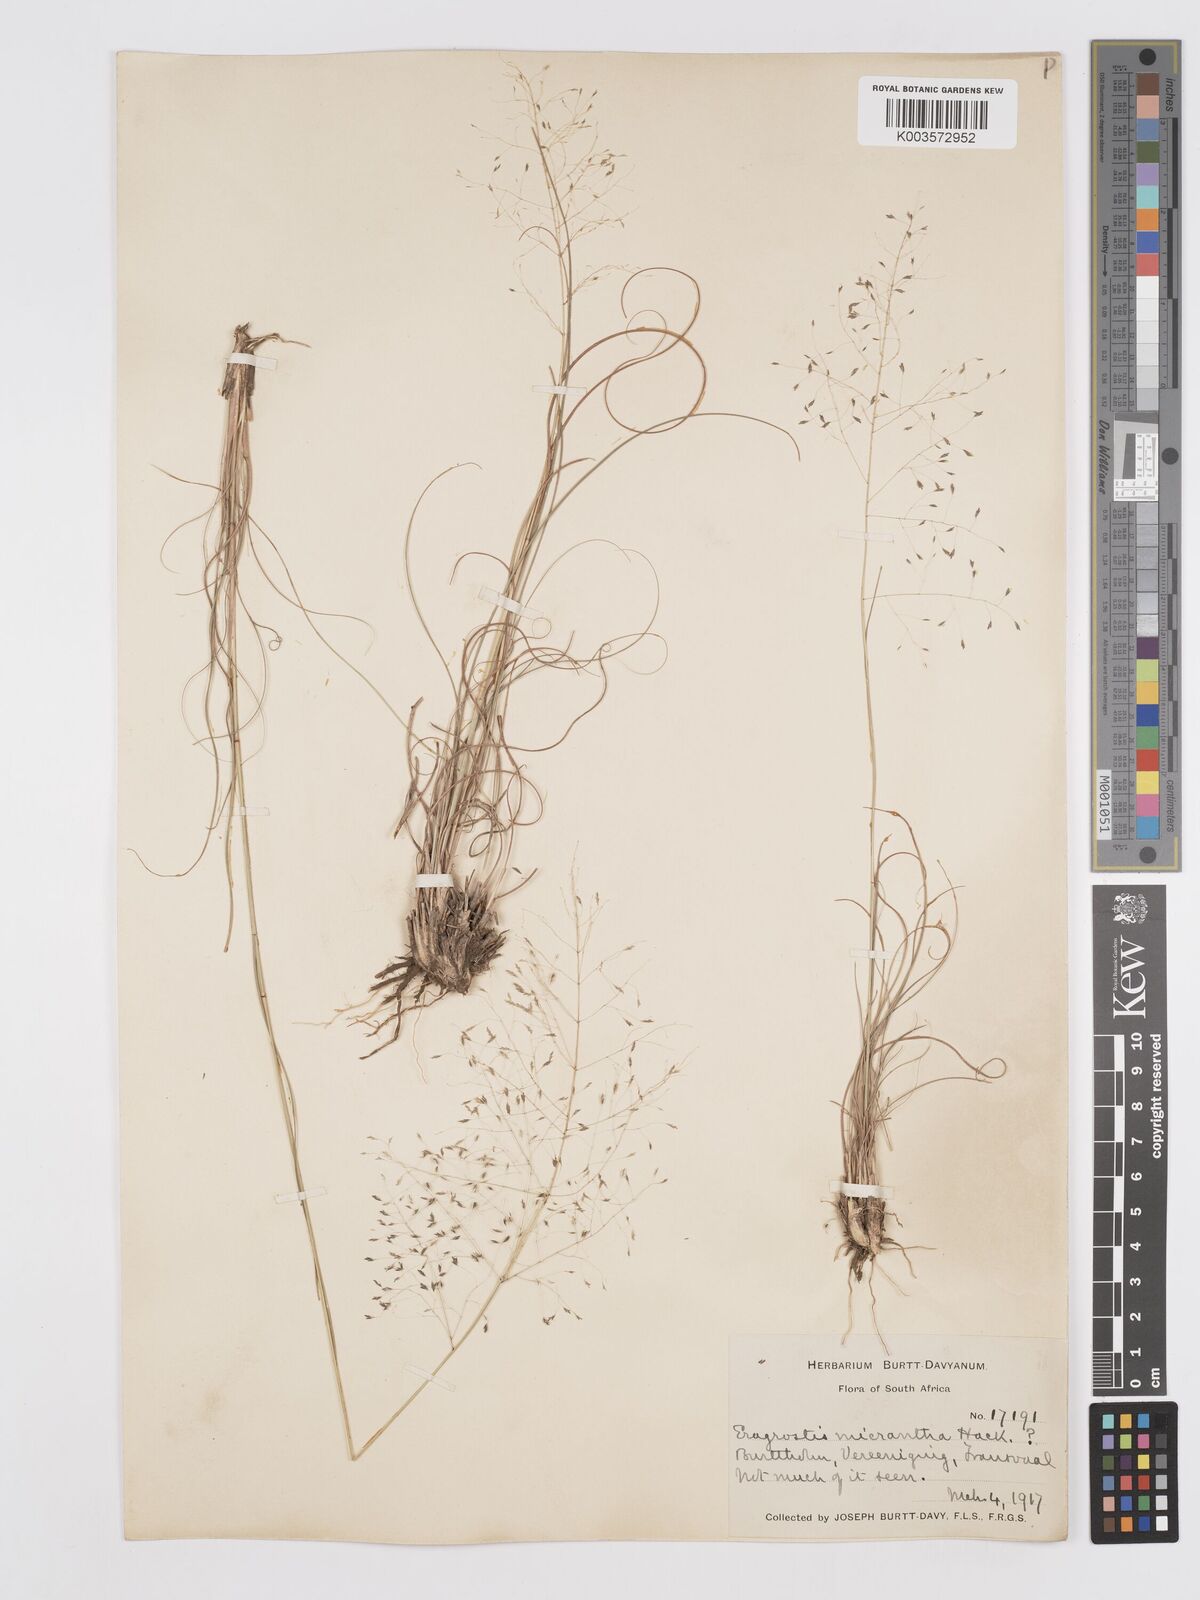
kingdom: Plantae
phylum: Tracheophyta
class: Liliopsida
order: Poales
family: Poaceae
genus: Eragrostis
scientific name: Eragrostis curvula
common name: African love-grass
